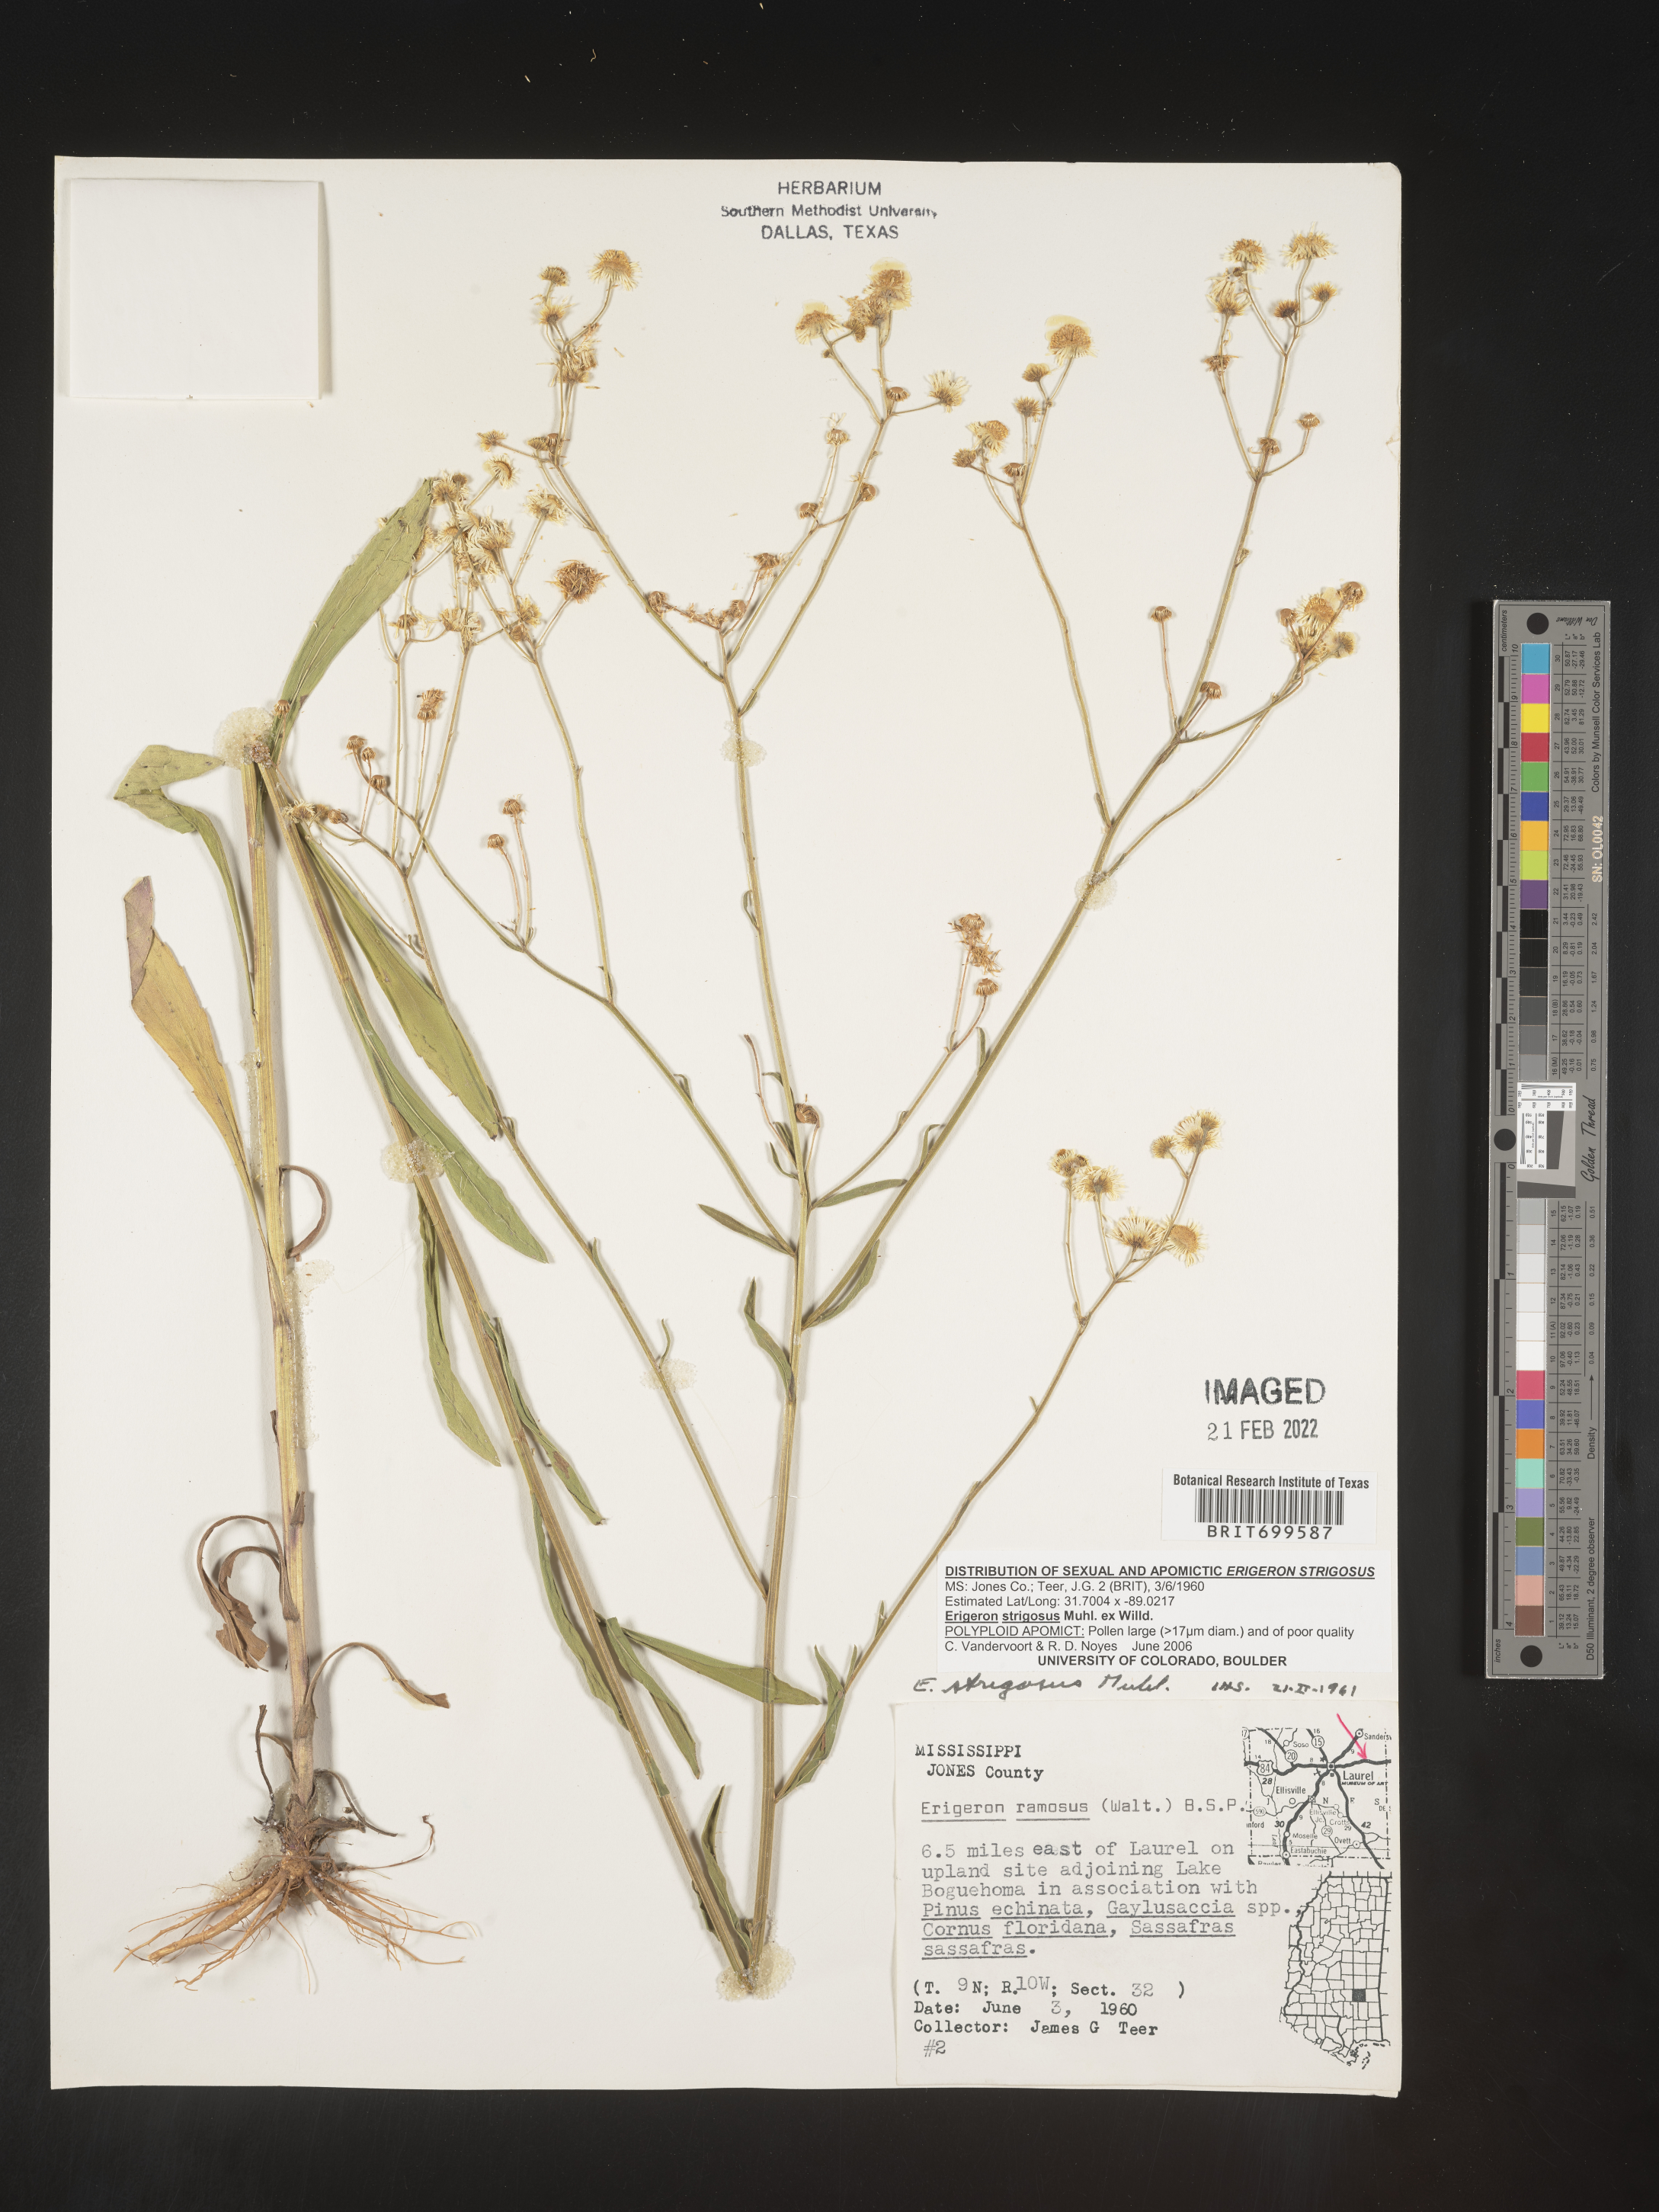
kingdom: Plantae
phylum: Tracheophyta
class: Magnoliopsida
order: Asterales
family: Asteraceae
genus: Erigeron
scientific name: Erigeron strigosus
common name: Common eastern fleabane
